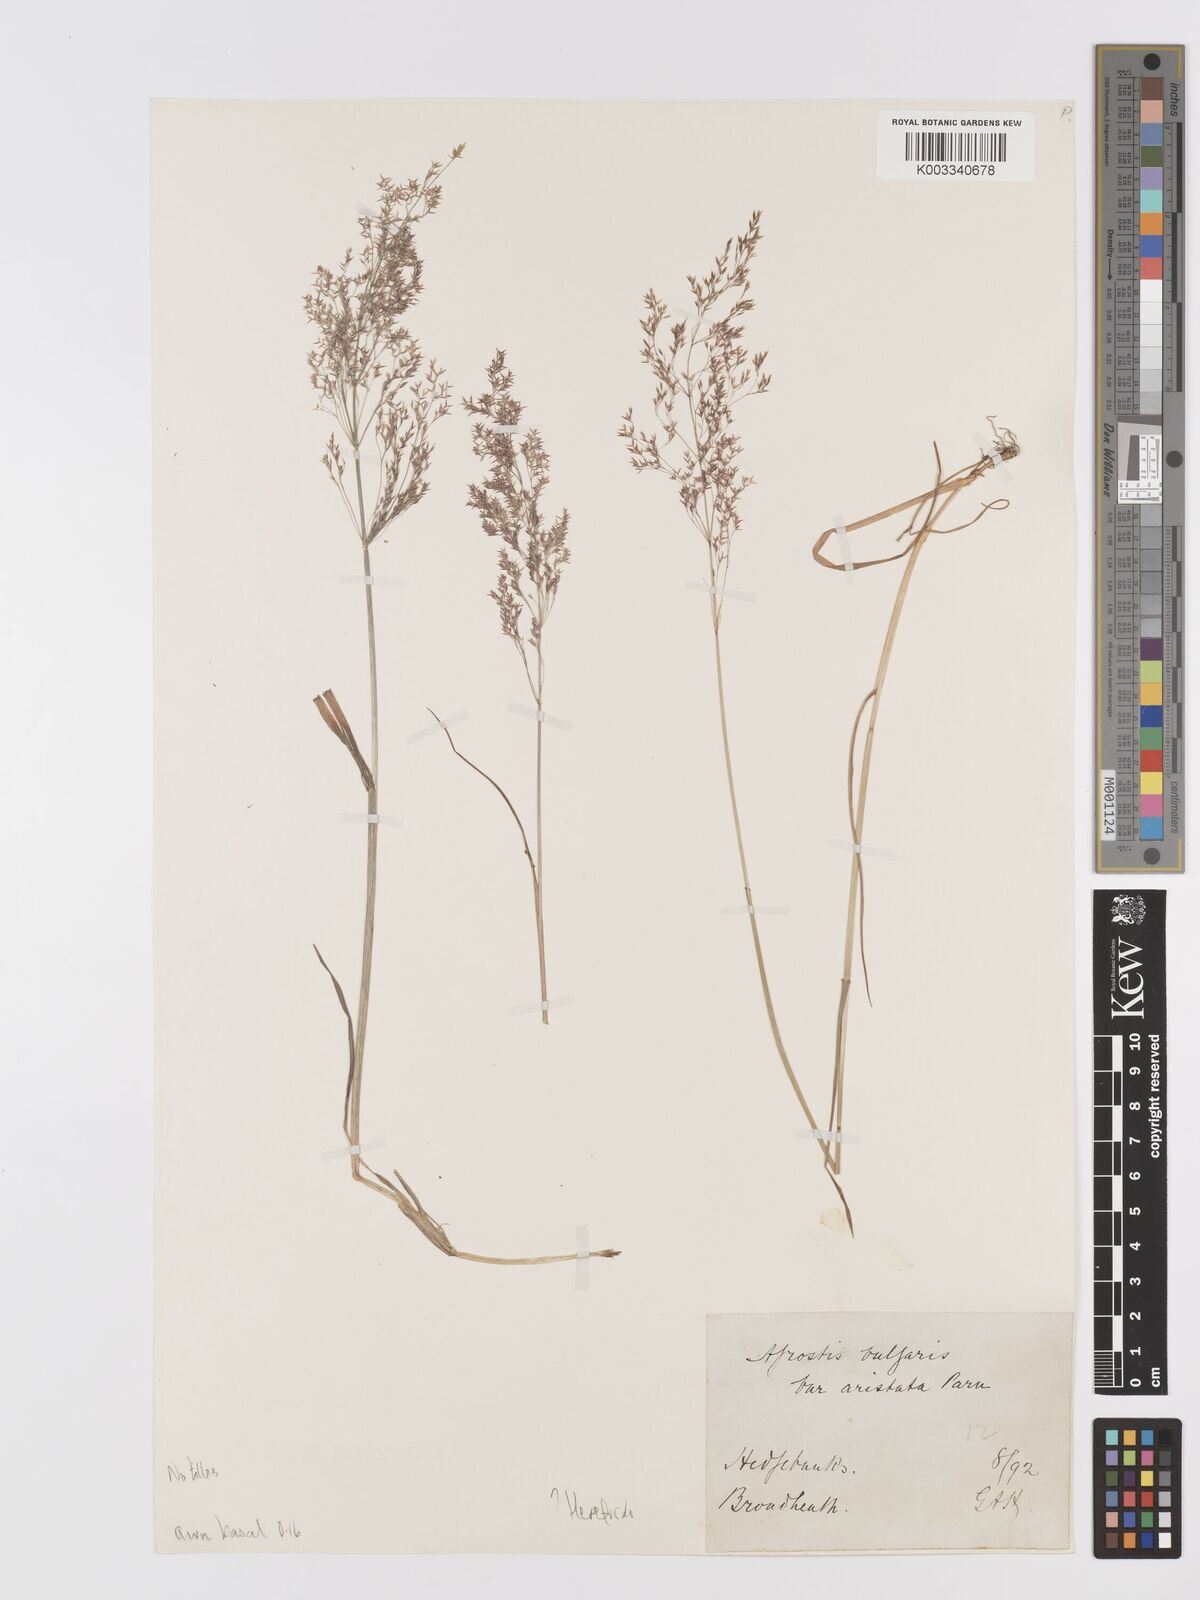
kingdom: Plantae
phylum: Tracheophyta
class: Liliopsida
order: Poales
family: Poaceae
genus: Agrostis
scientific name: Agrostis capillaris
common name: Colonial bentgrass
